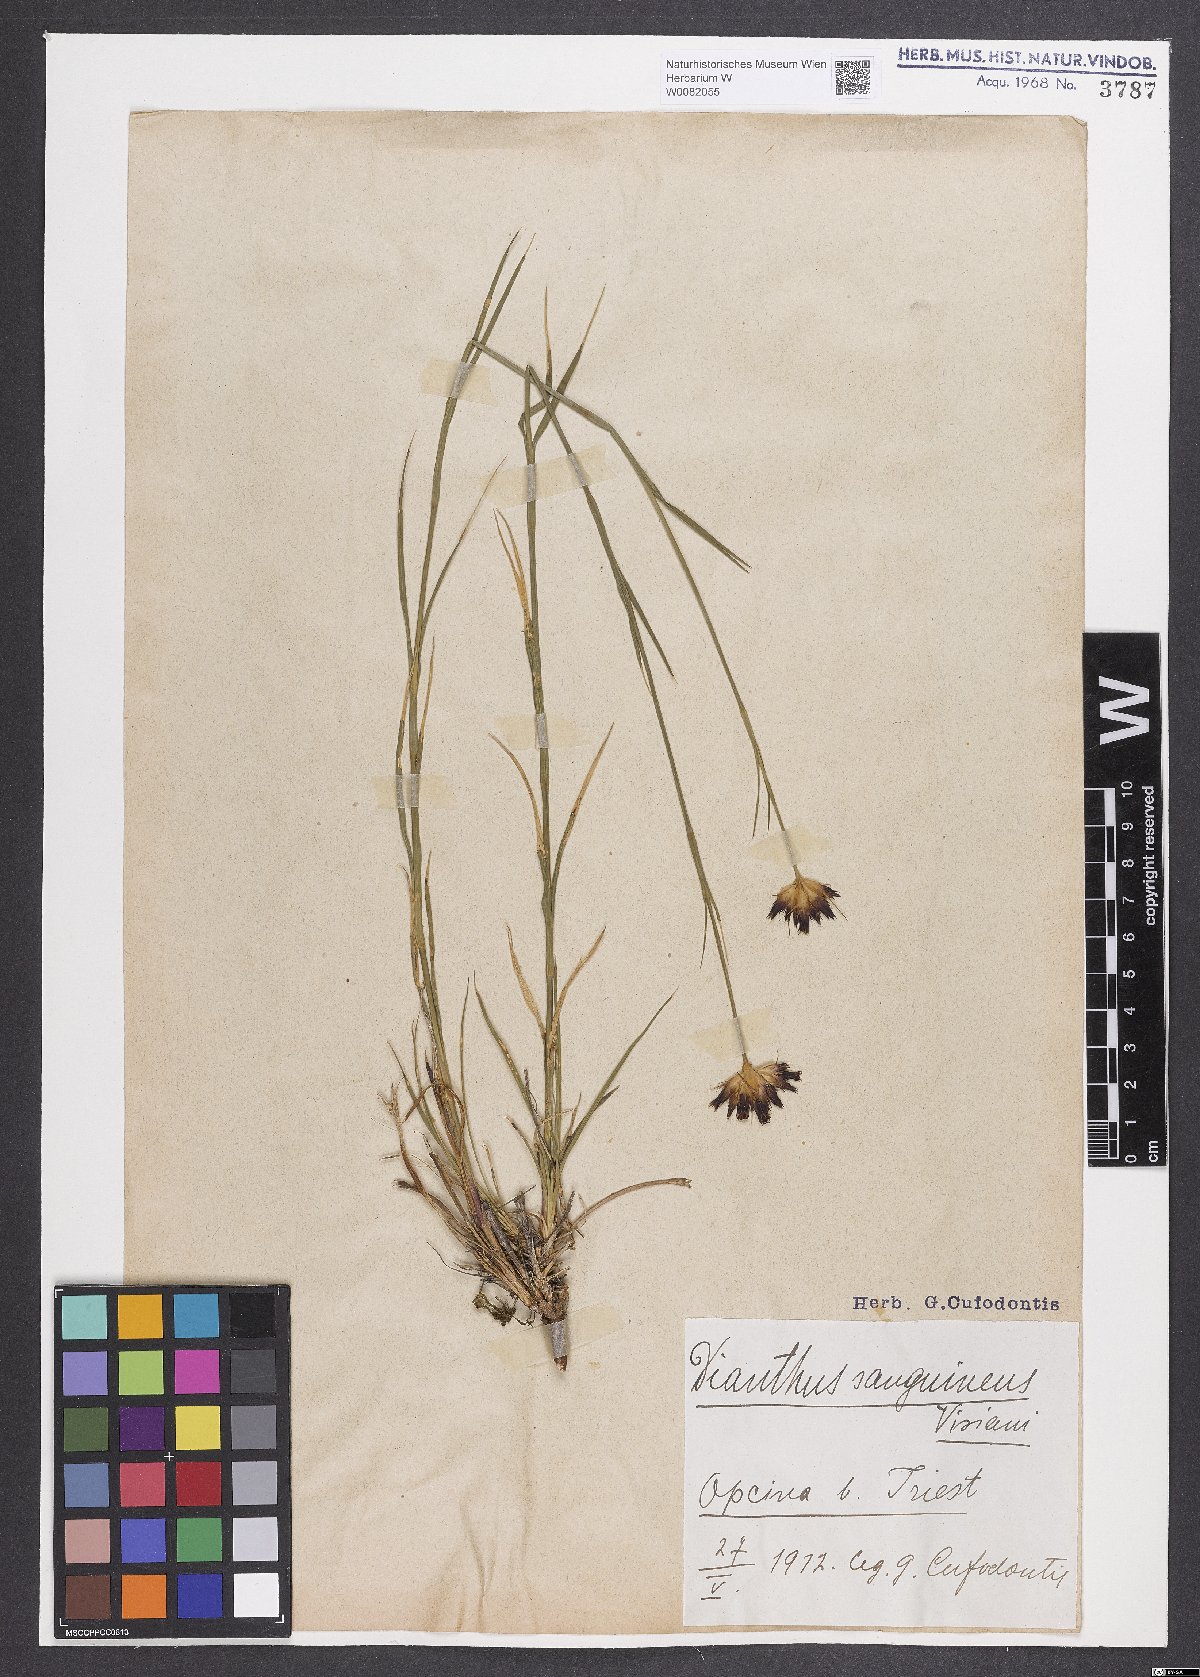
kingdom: Plantae
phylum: Tracheophyta
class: Magnoliopsida
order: Caryophyllales
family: Caryophyllaceae
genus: Dianthus
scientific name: Dianthus carthusianorum
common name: Carthusian pink
